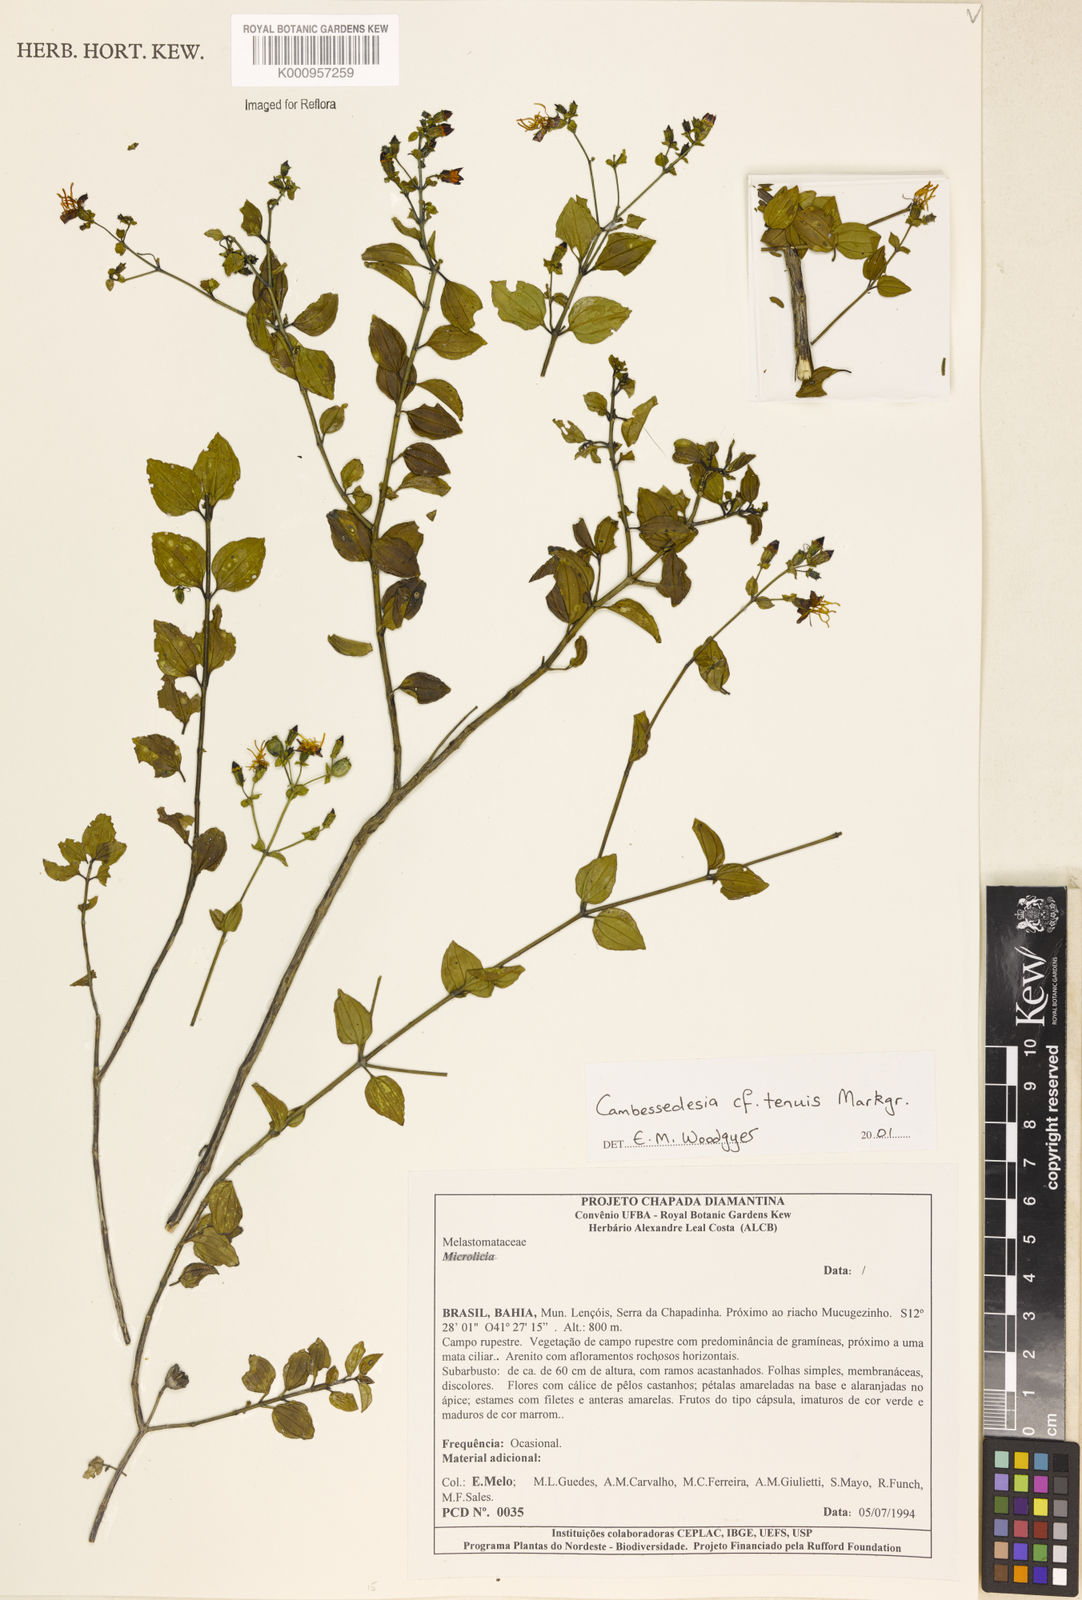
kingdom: Plantae
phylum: Tracheophyta
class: Magnoliopsida
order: Myrtales
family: Melastomataceae
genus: Cambessedesia
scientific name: Cambessedesia tenuis
